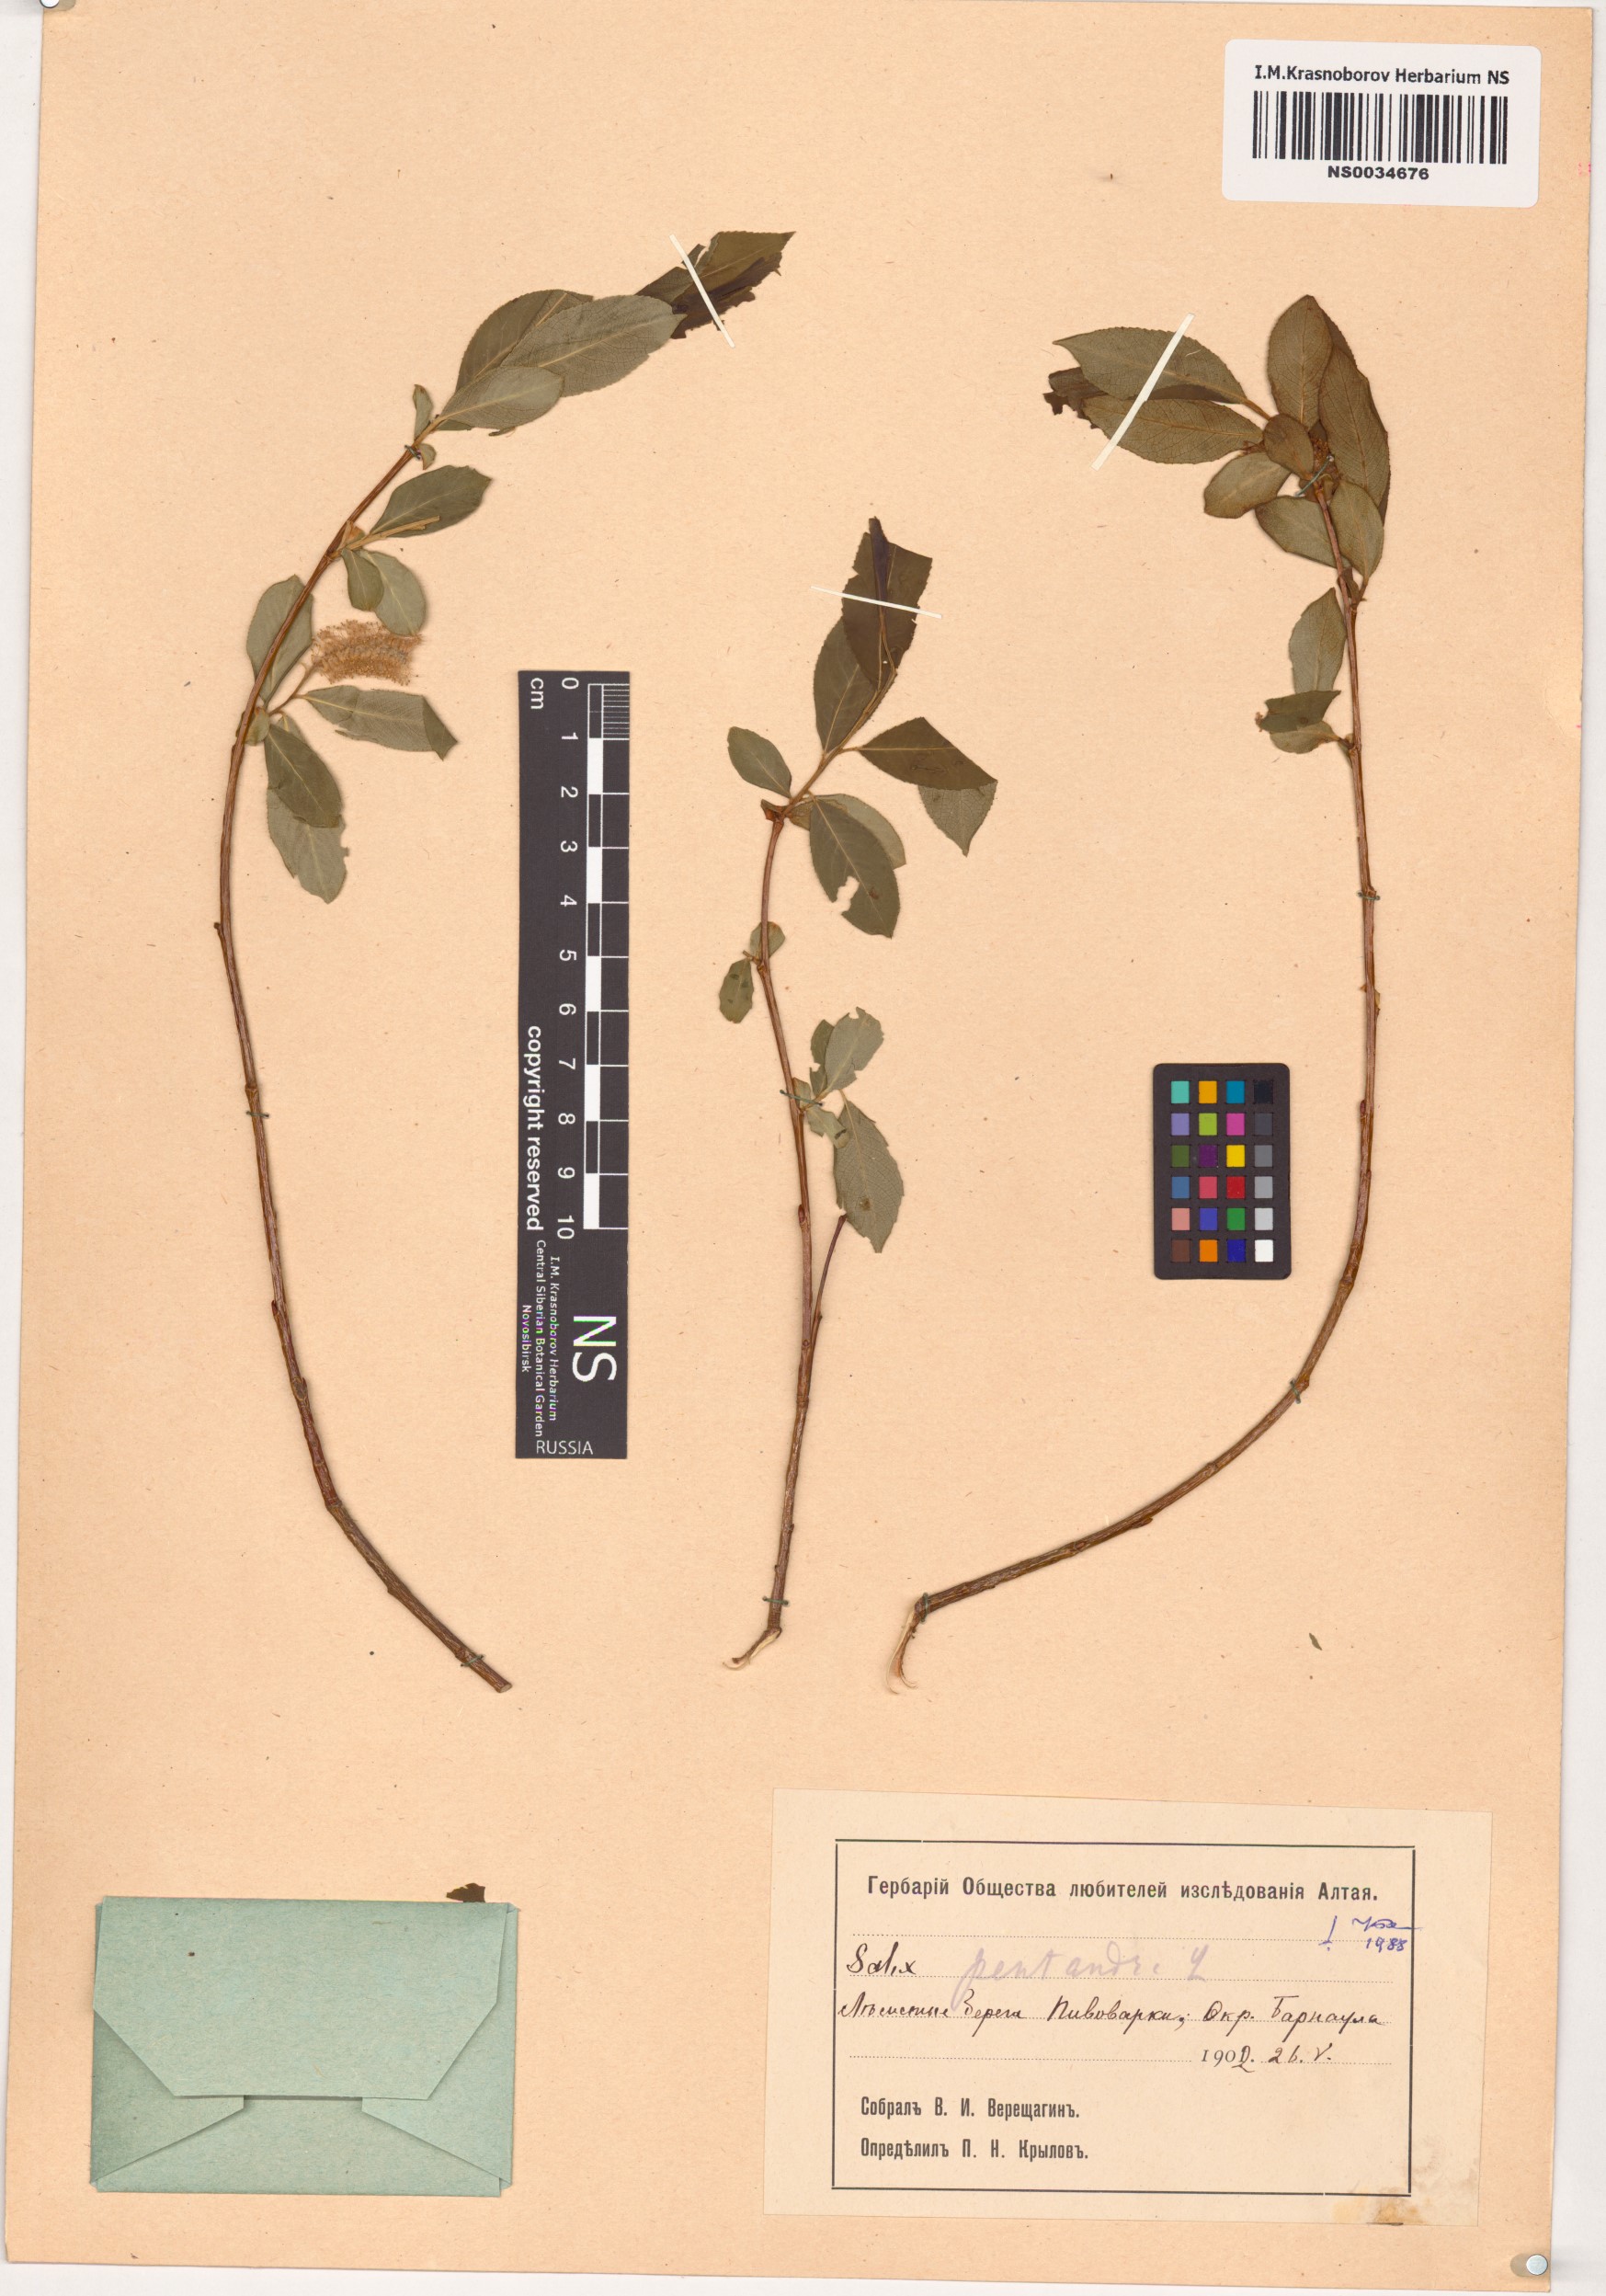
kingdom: Plantae
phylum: Tracheophyta
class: Magnoliopsida
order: Malpighiales
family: Salicaceae
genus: Salix
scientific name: Salix pentandra
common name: Bay willow
